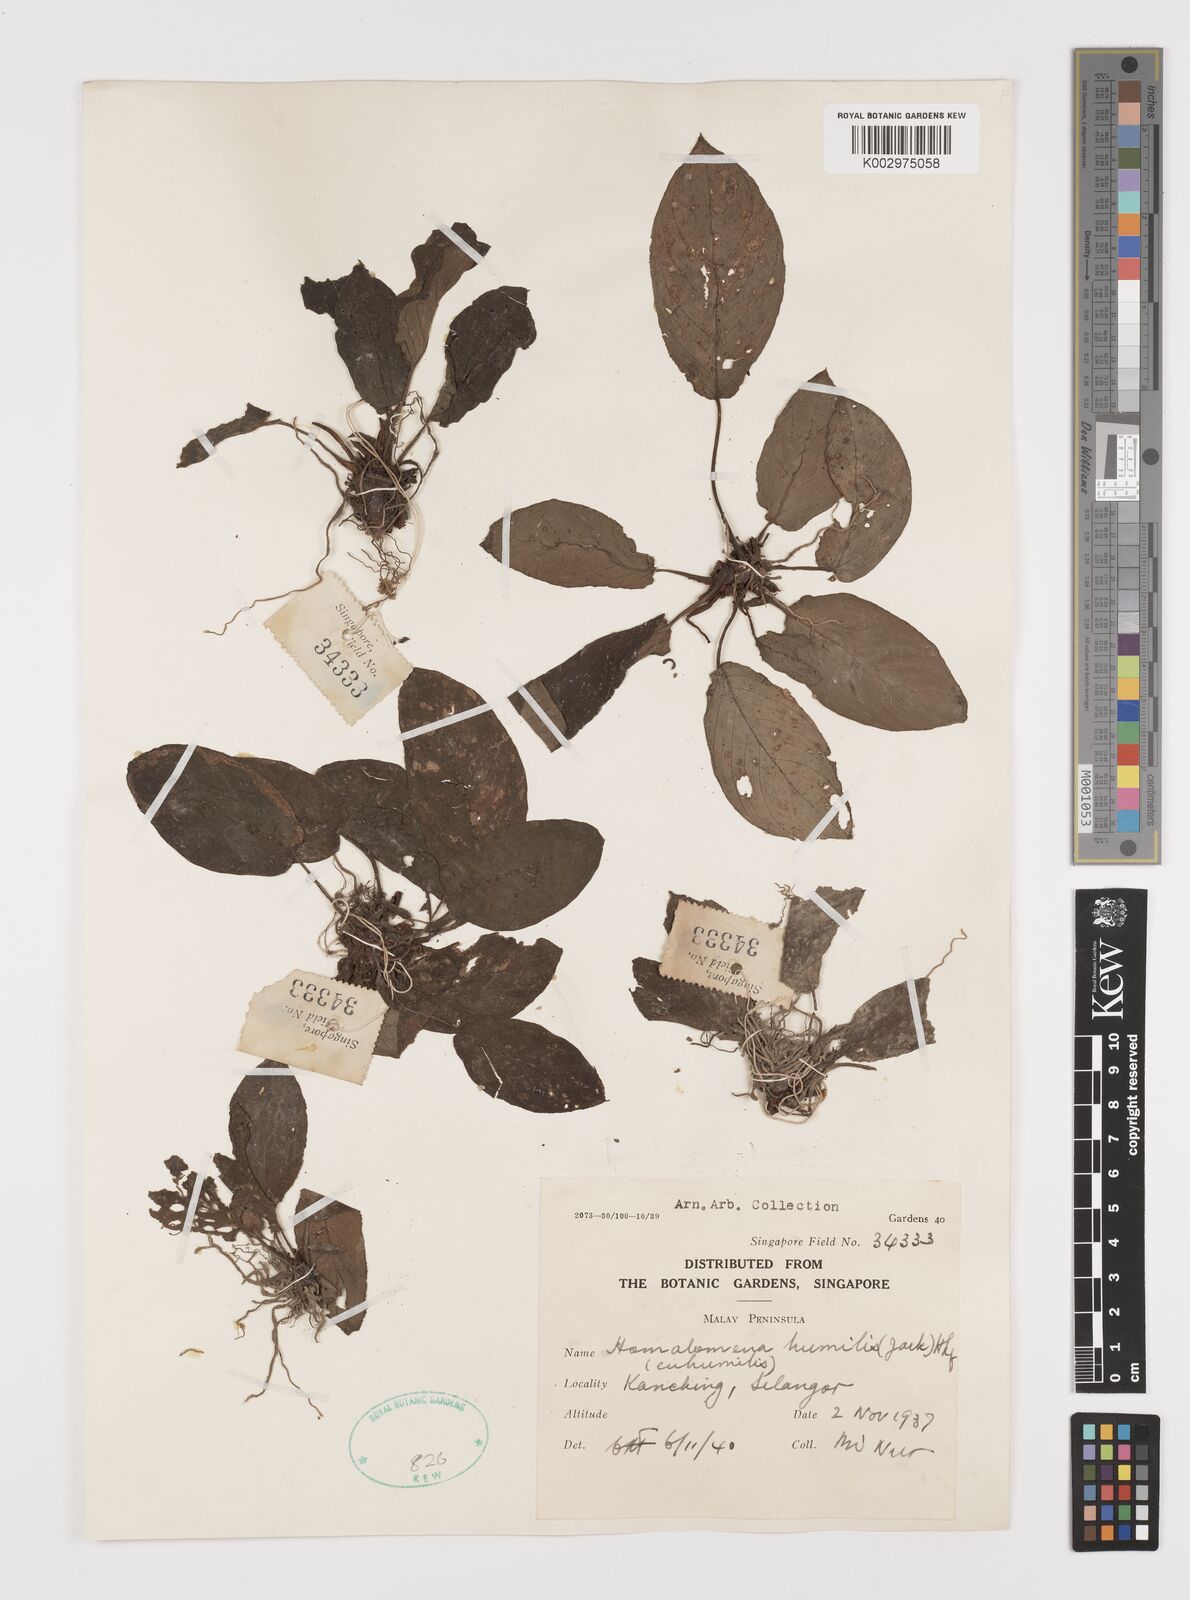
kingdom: Plantae
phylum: Tracheophyta
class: Liliopsida
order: Alismatales
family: Araceae
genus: Homalomena
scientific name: Homalomena humilis
